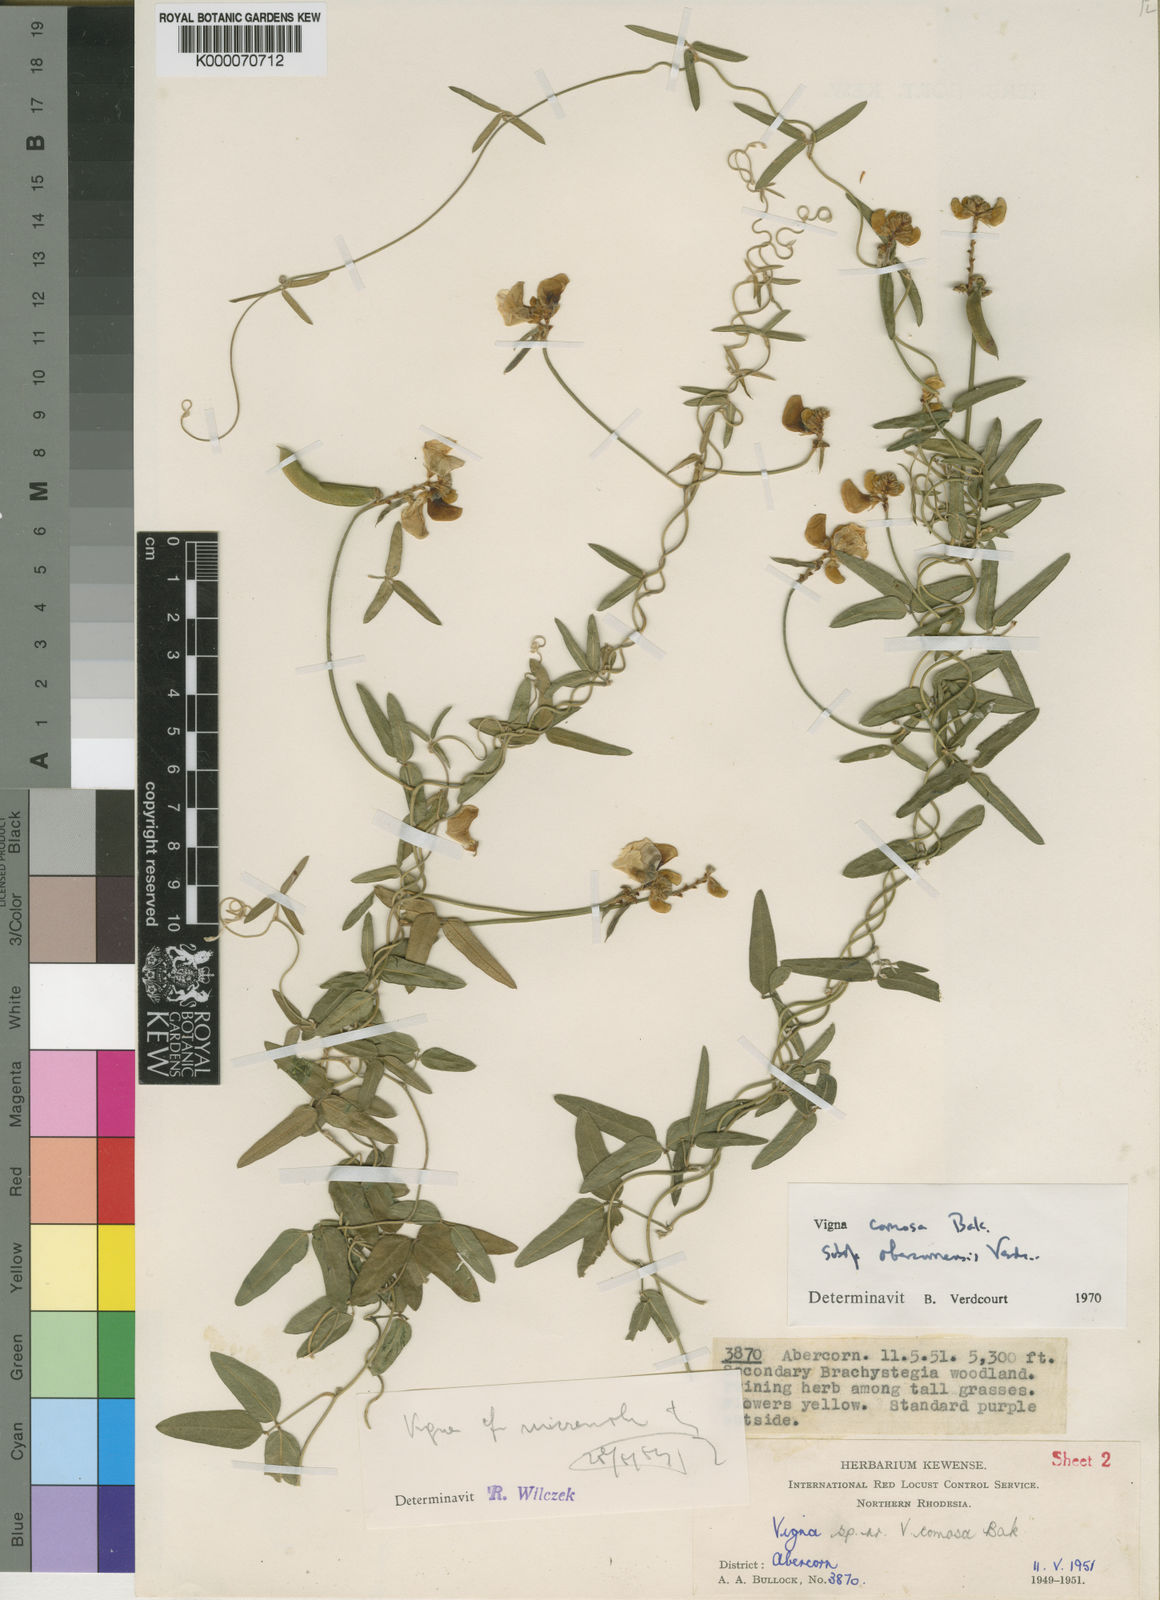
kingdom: Plantae
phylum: Tracheophyta
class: Magnoliopsida
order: Fabales
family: Fabaceae
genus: Vigna
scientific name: Vigna comosa
